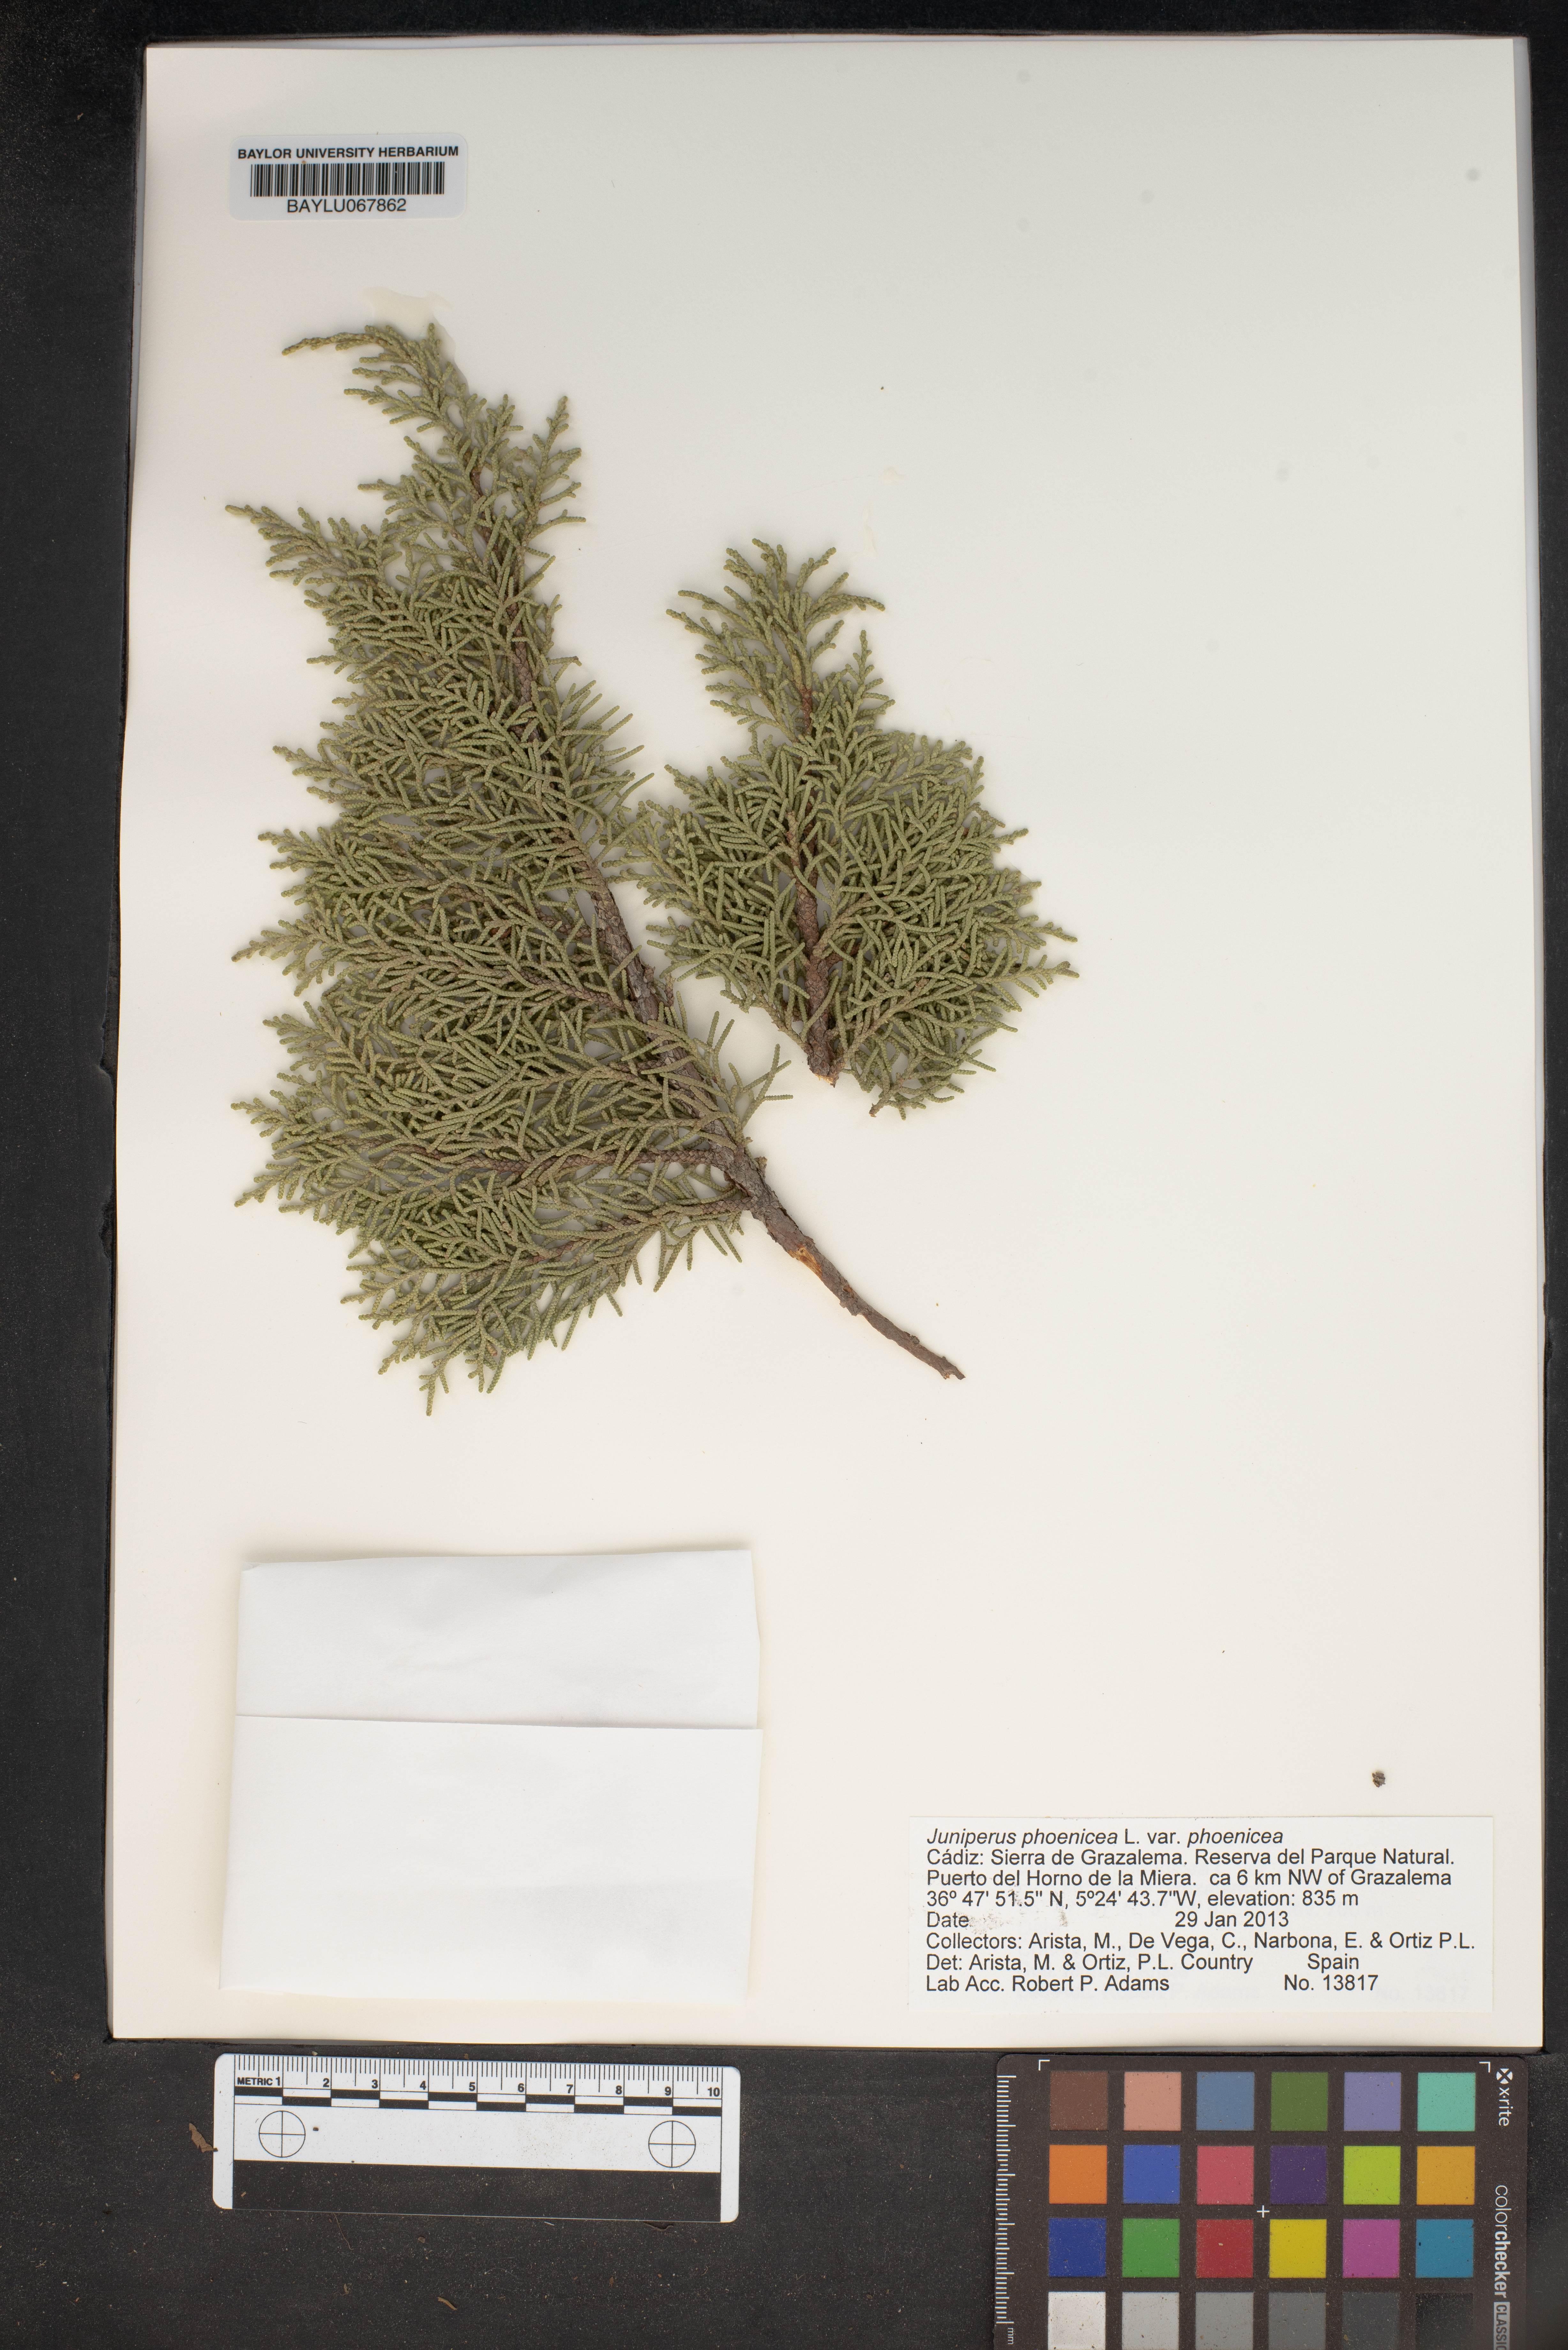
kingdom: Plantae
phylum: Tracheophyta
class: Pinopsida
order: Pinales
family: Cupressaceae
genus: Juniperus
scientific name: Juniperus phoenicea
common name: Phoenician juniper
